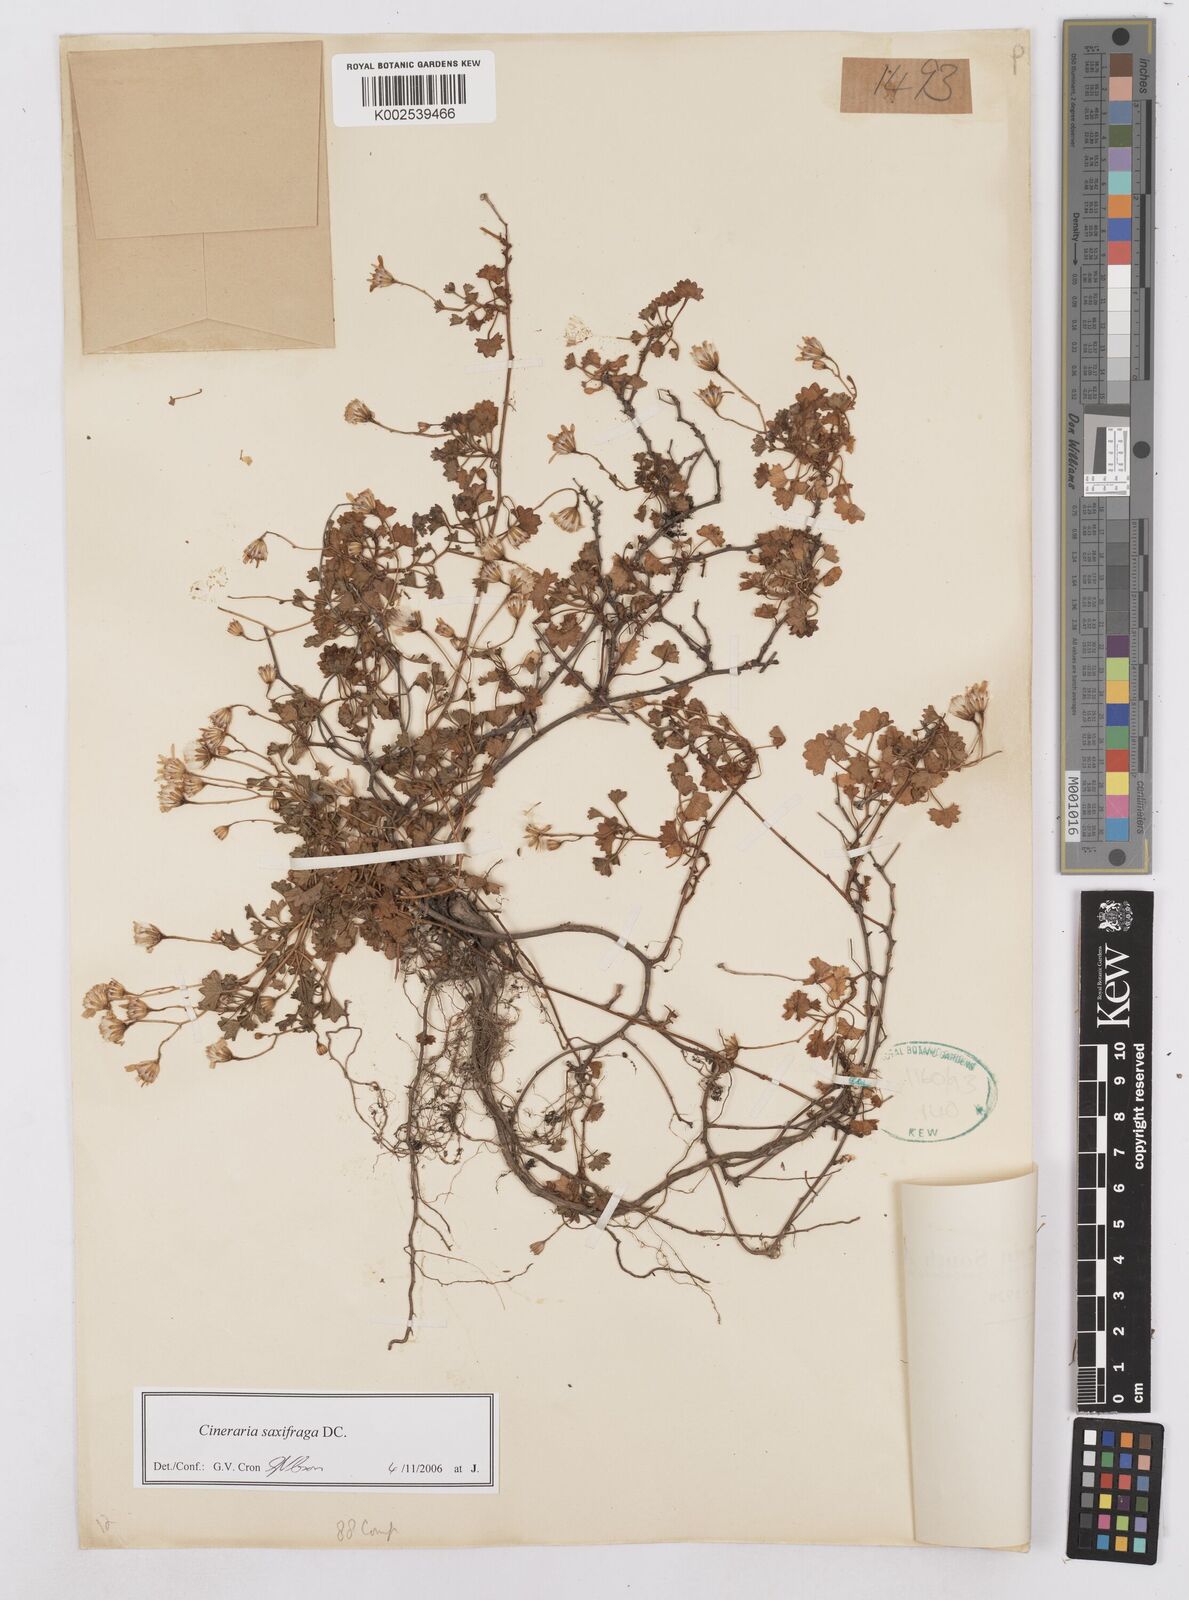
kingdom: Plantae
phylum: Tracheophyta
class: Magnoliopsida
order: Asterales
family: Asteraceae
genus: Cineraria
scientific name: Cineraria saxifraga
